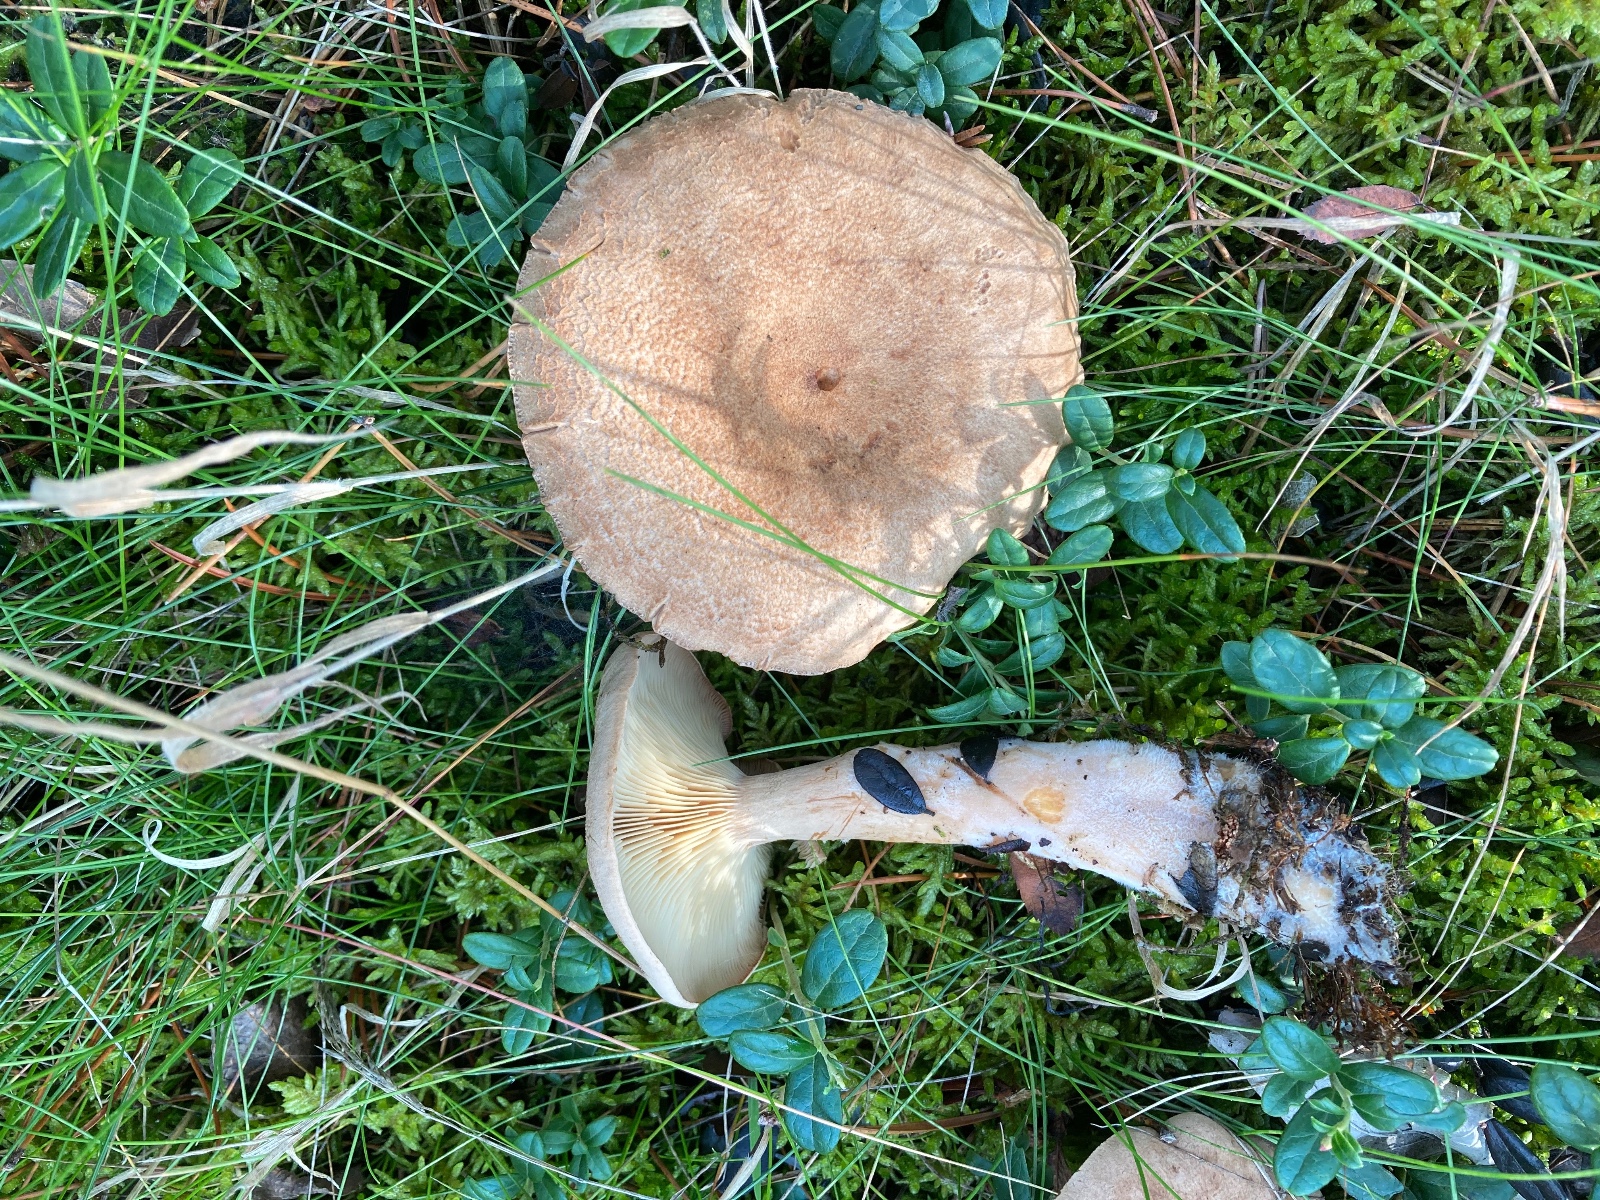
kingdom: Fungi
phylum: Basidiomycota
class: Agaricomycetes
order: Russulales
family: Russulaceae
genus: Lactarius
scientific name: Lactarius helvus
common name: mose-mælkehat
